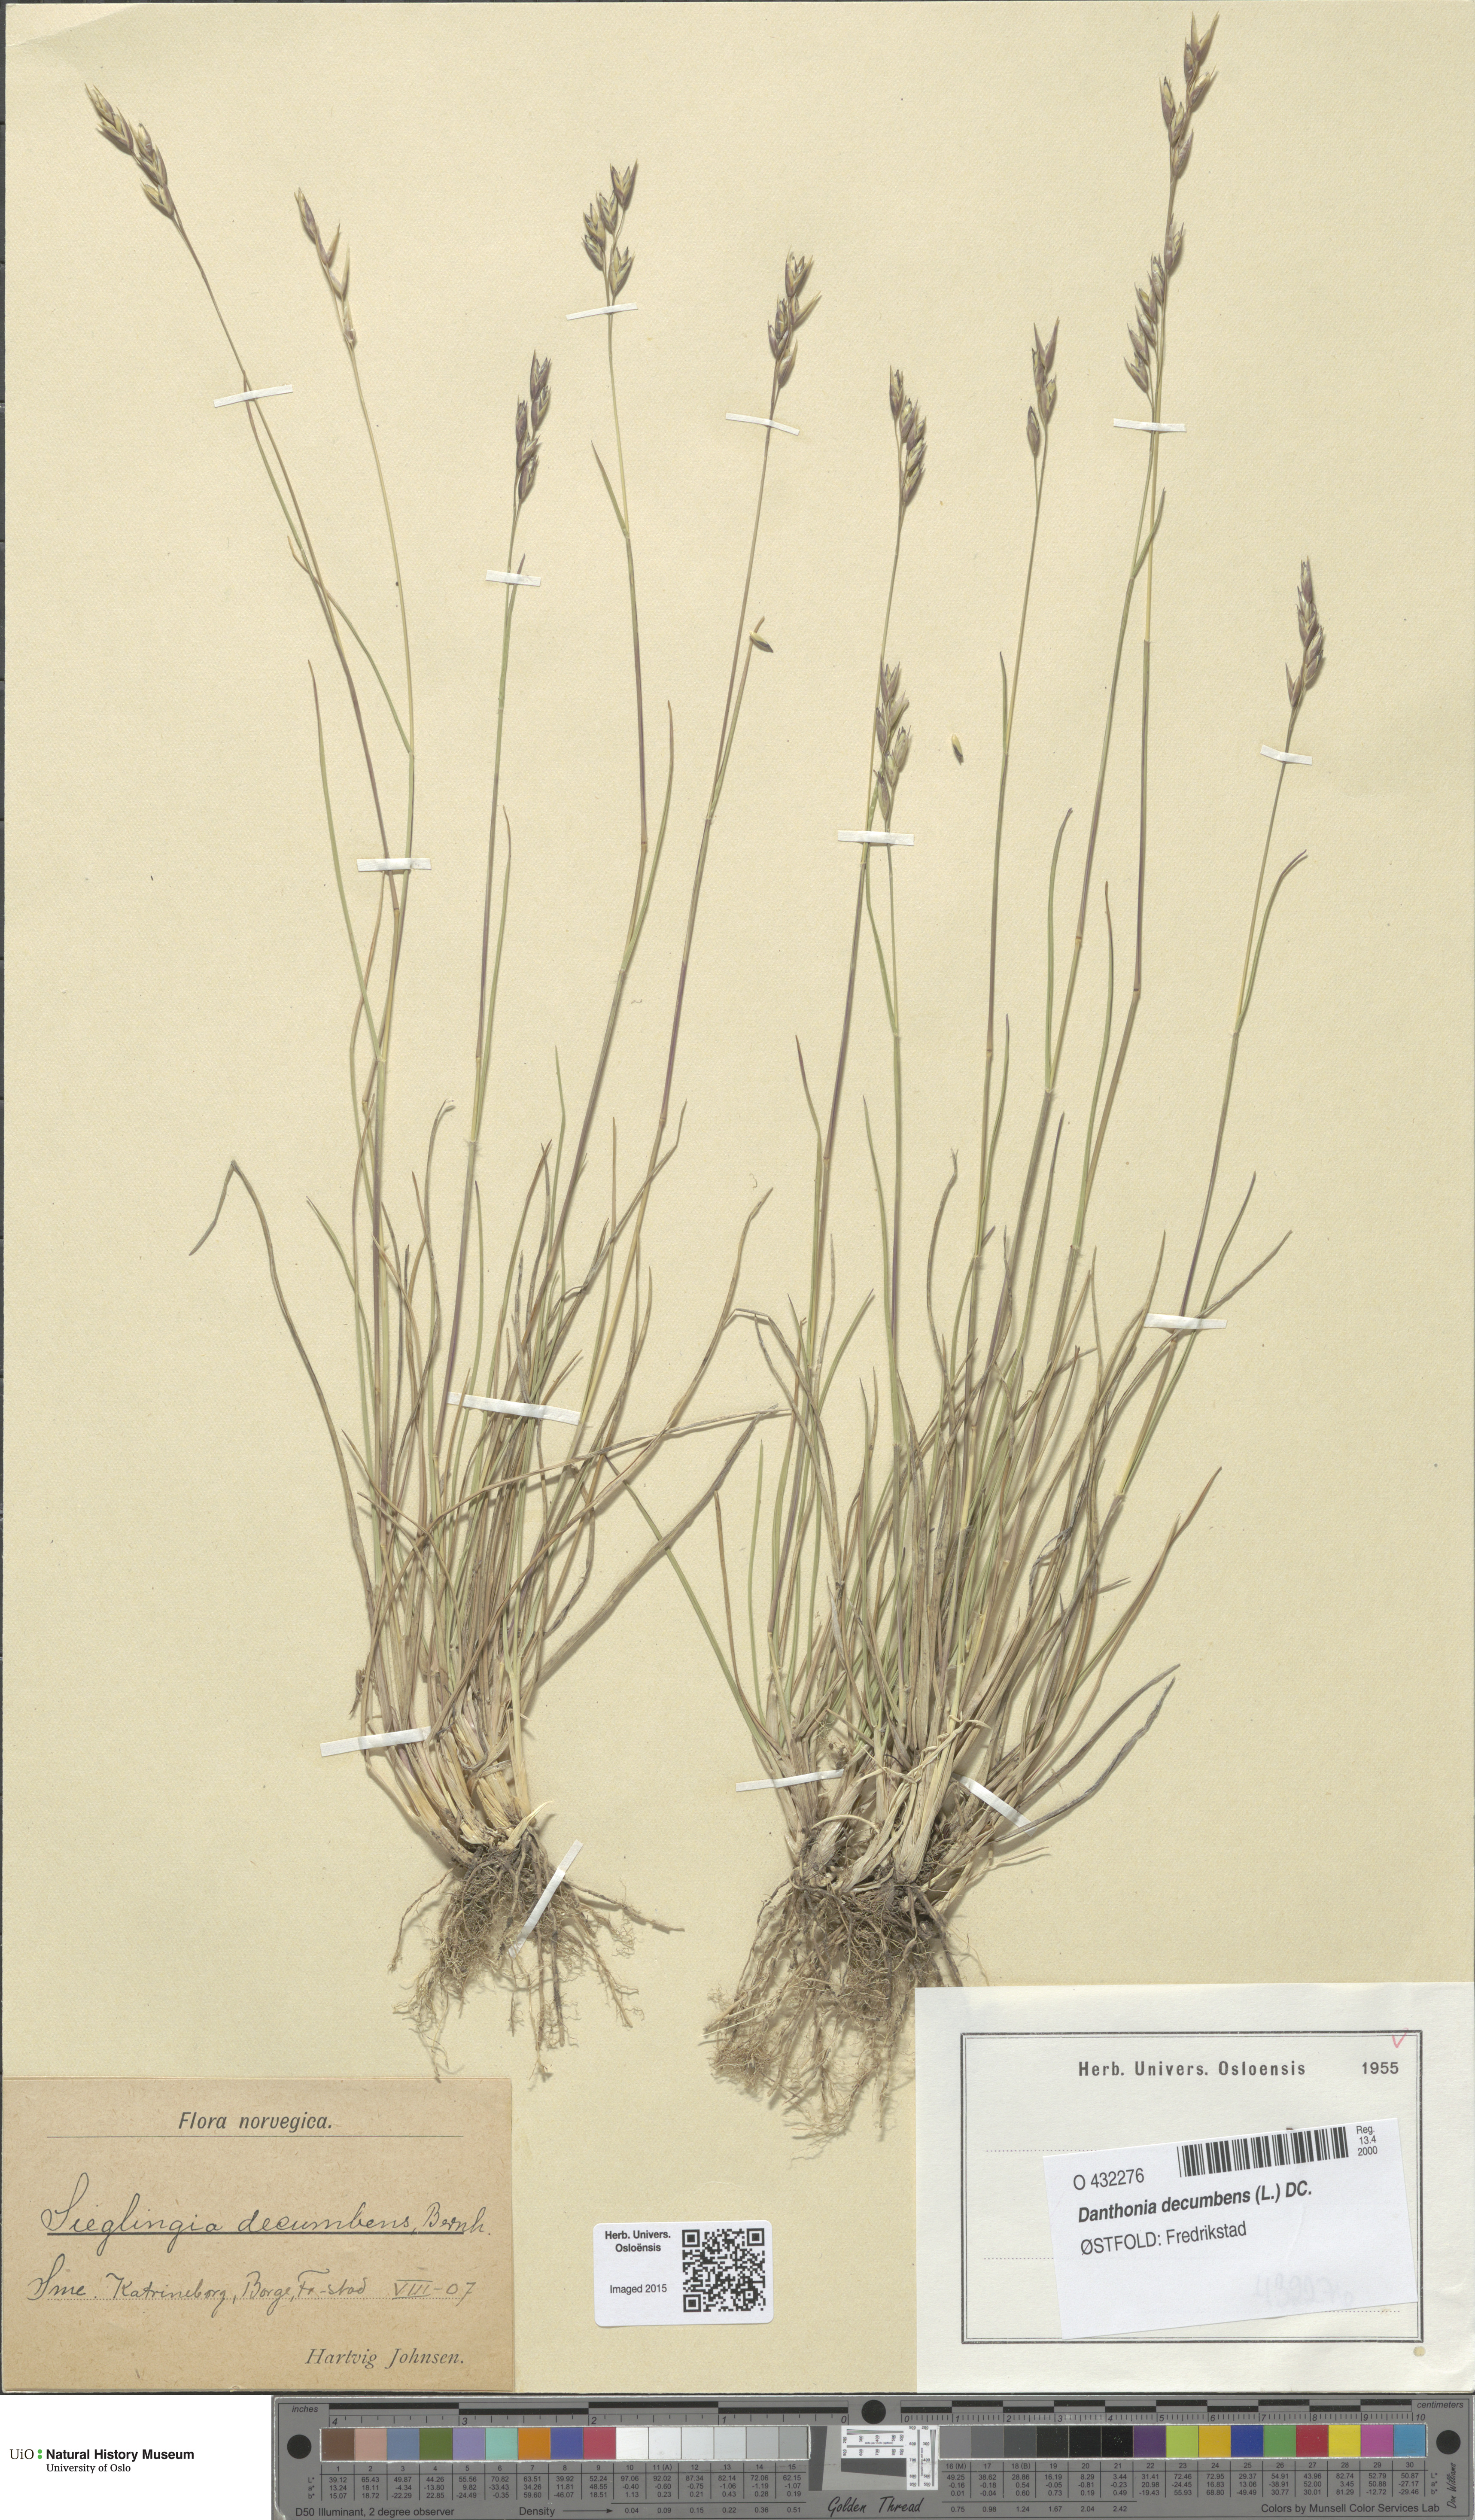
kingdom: Plantae
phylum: Tracheophyta
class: Liliopsida
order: Poales
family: Poaceae
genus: Danthonia
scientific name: Danthonia decumbens
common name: Common heathgrass
